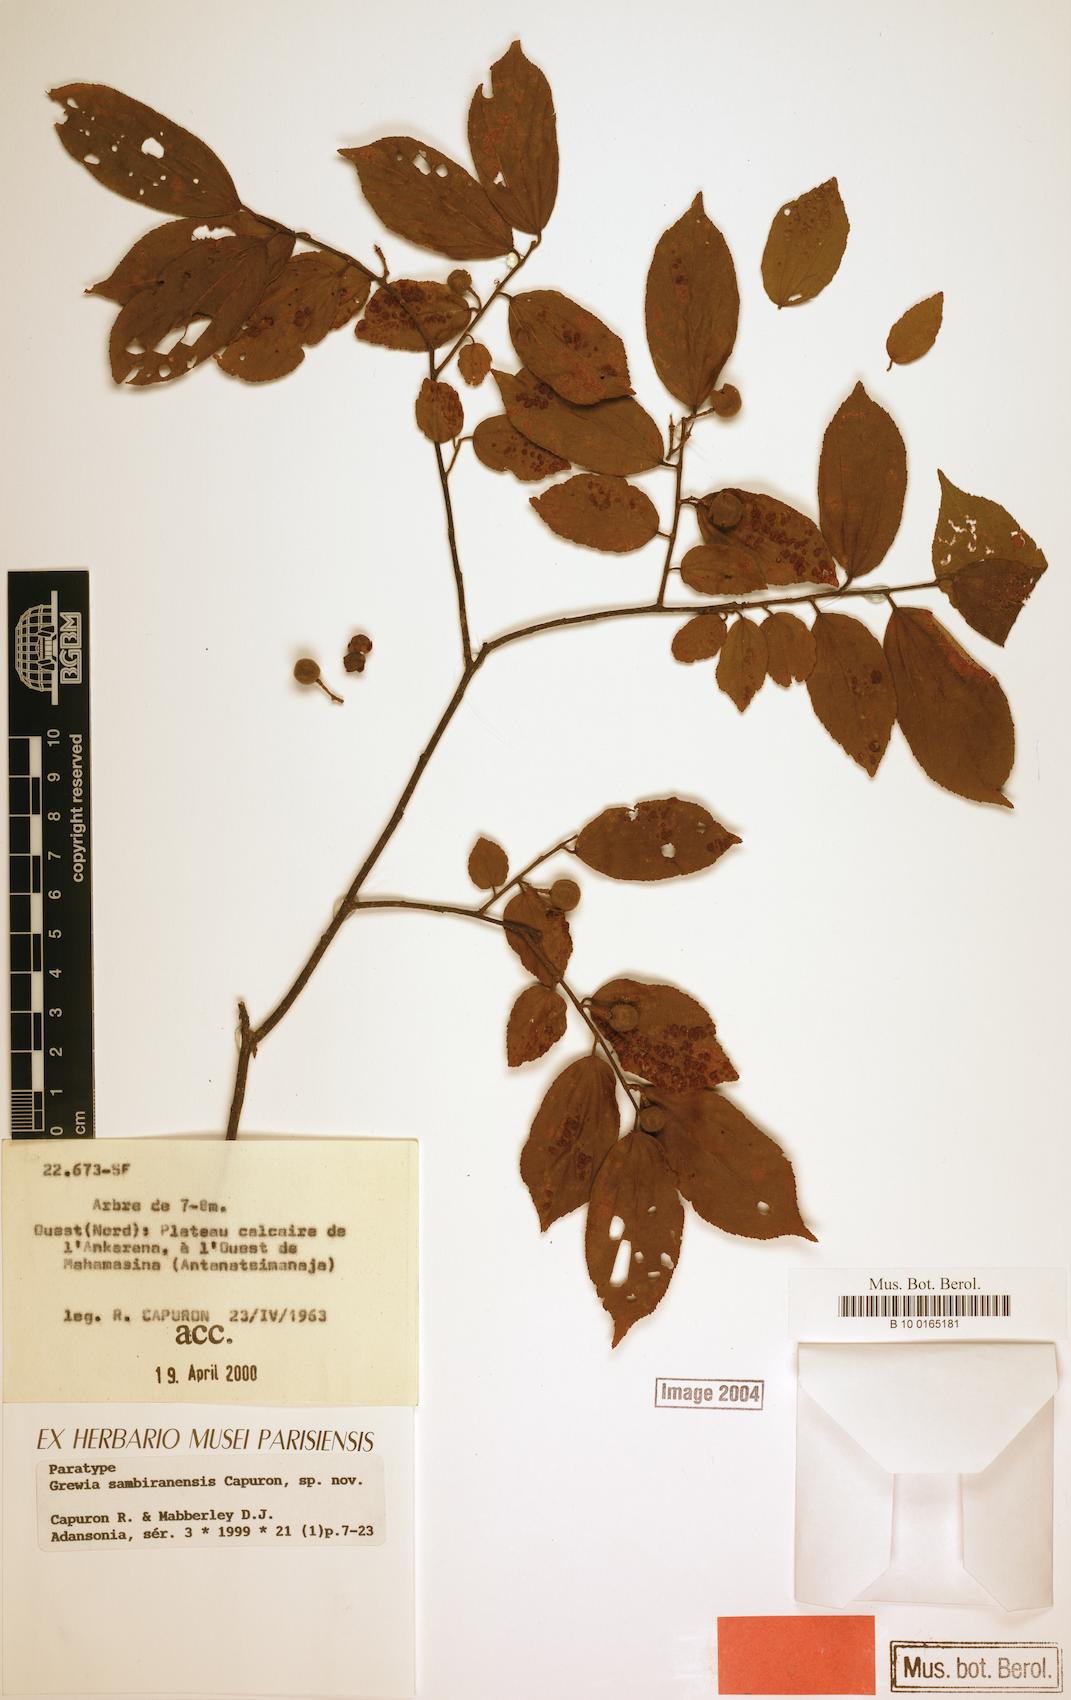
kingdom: Plantae
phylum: Tracheophyta
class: Magnoliopsida
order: Malvales
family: Malvaceae
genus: Grewia
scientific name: Grewia sambiranensis
